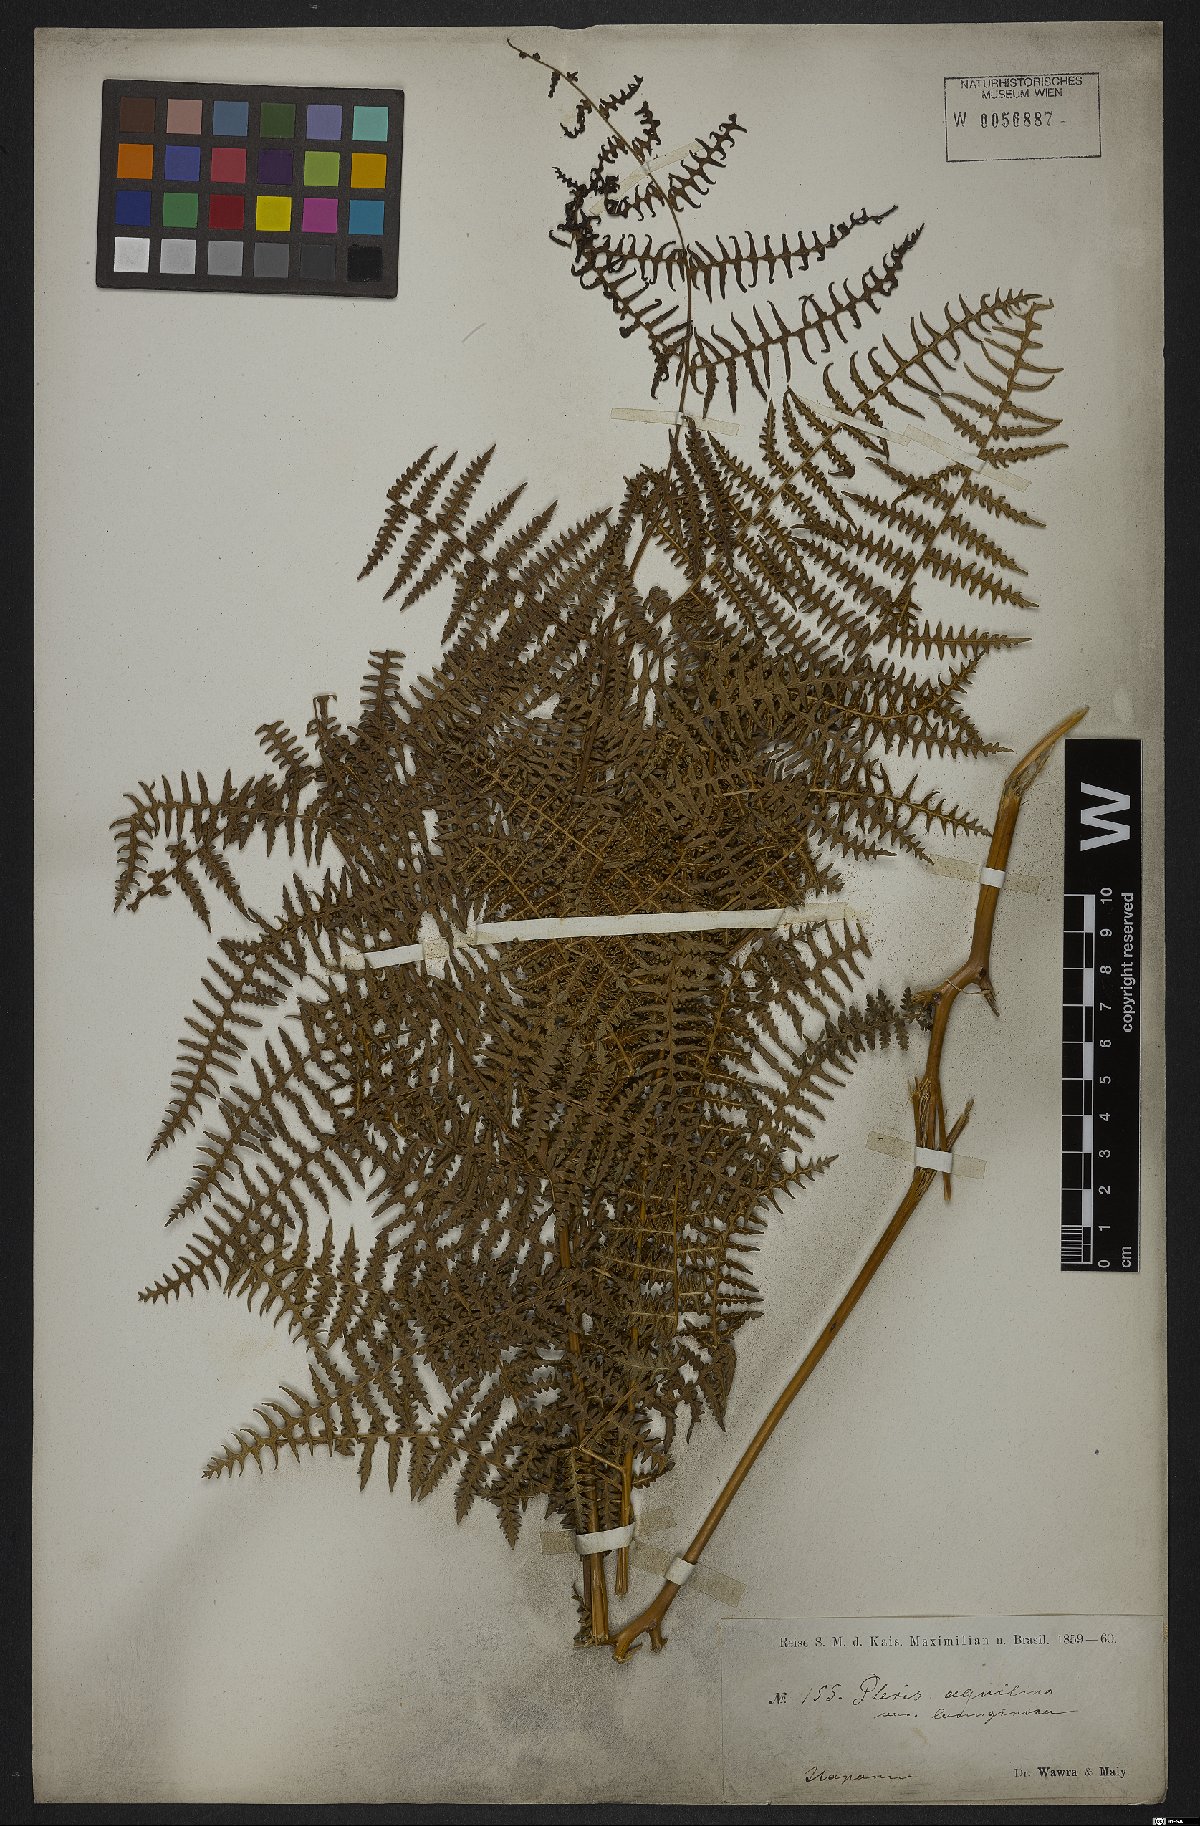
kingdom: Plantae
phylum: Tracheophyta
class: Polypodiopsida
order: Polypodiales
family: Dennstaedtiaceae
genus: Pteridium
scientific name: Pteridium aquilinum
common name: Bracken
